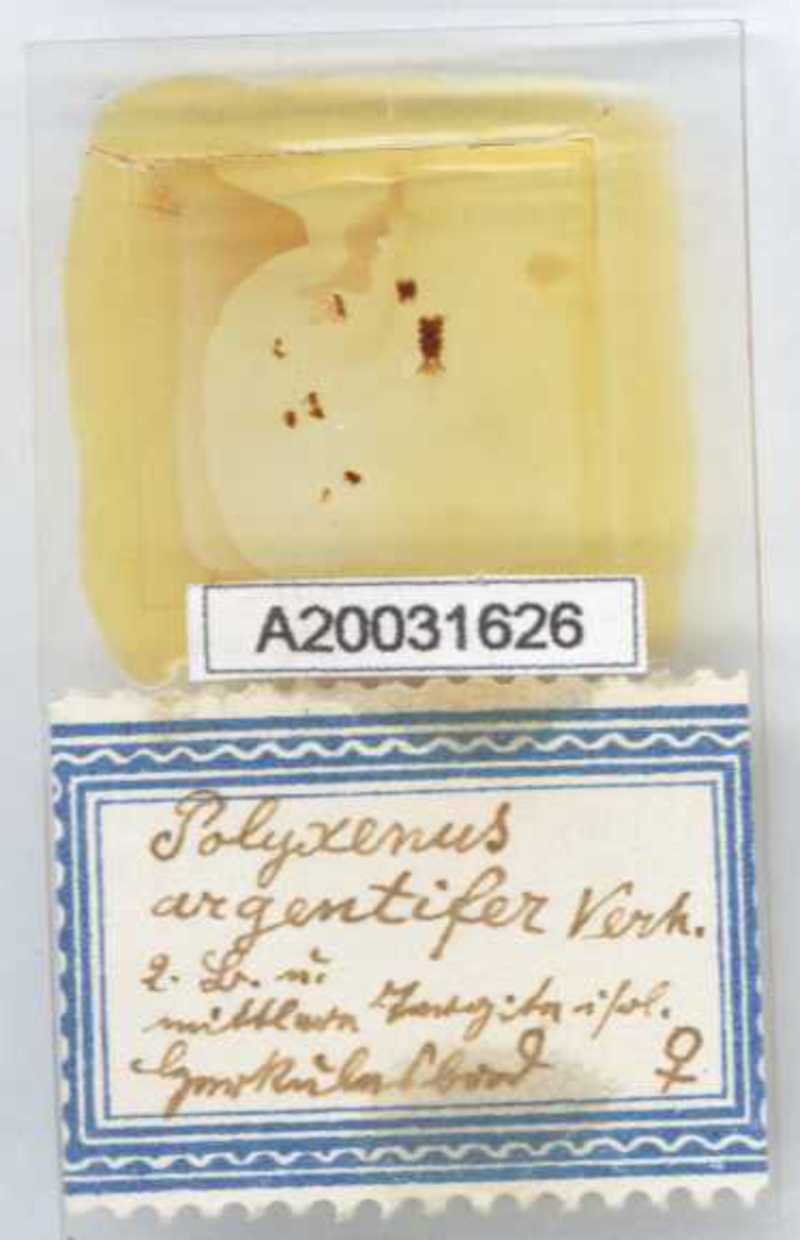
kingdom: Animalia
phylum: Arthropoda
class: Diplopoda
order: Polyxenida
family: Polyxenidae
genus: Propolyxenus
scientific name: Propolyxenus argentifer
